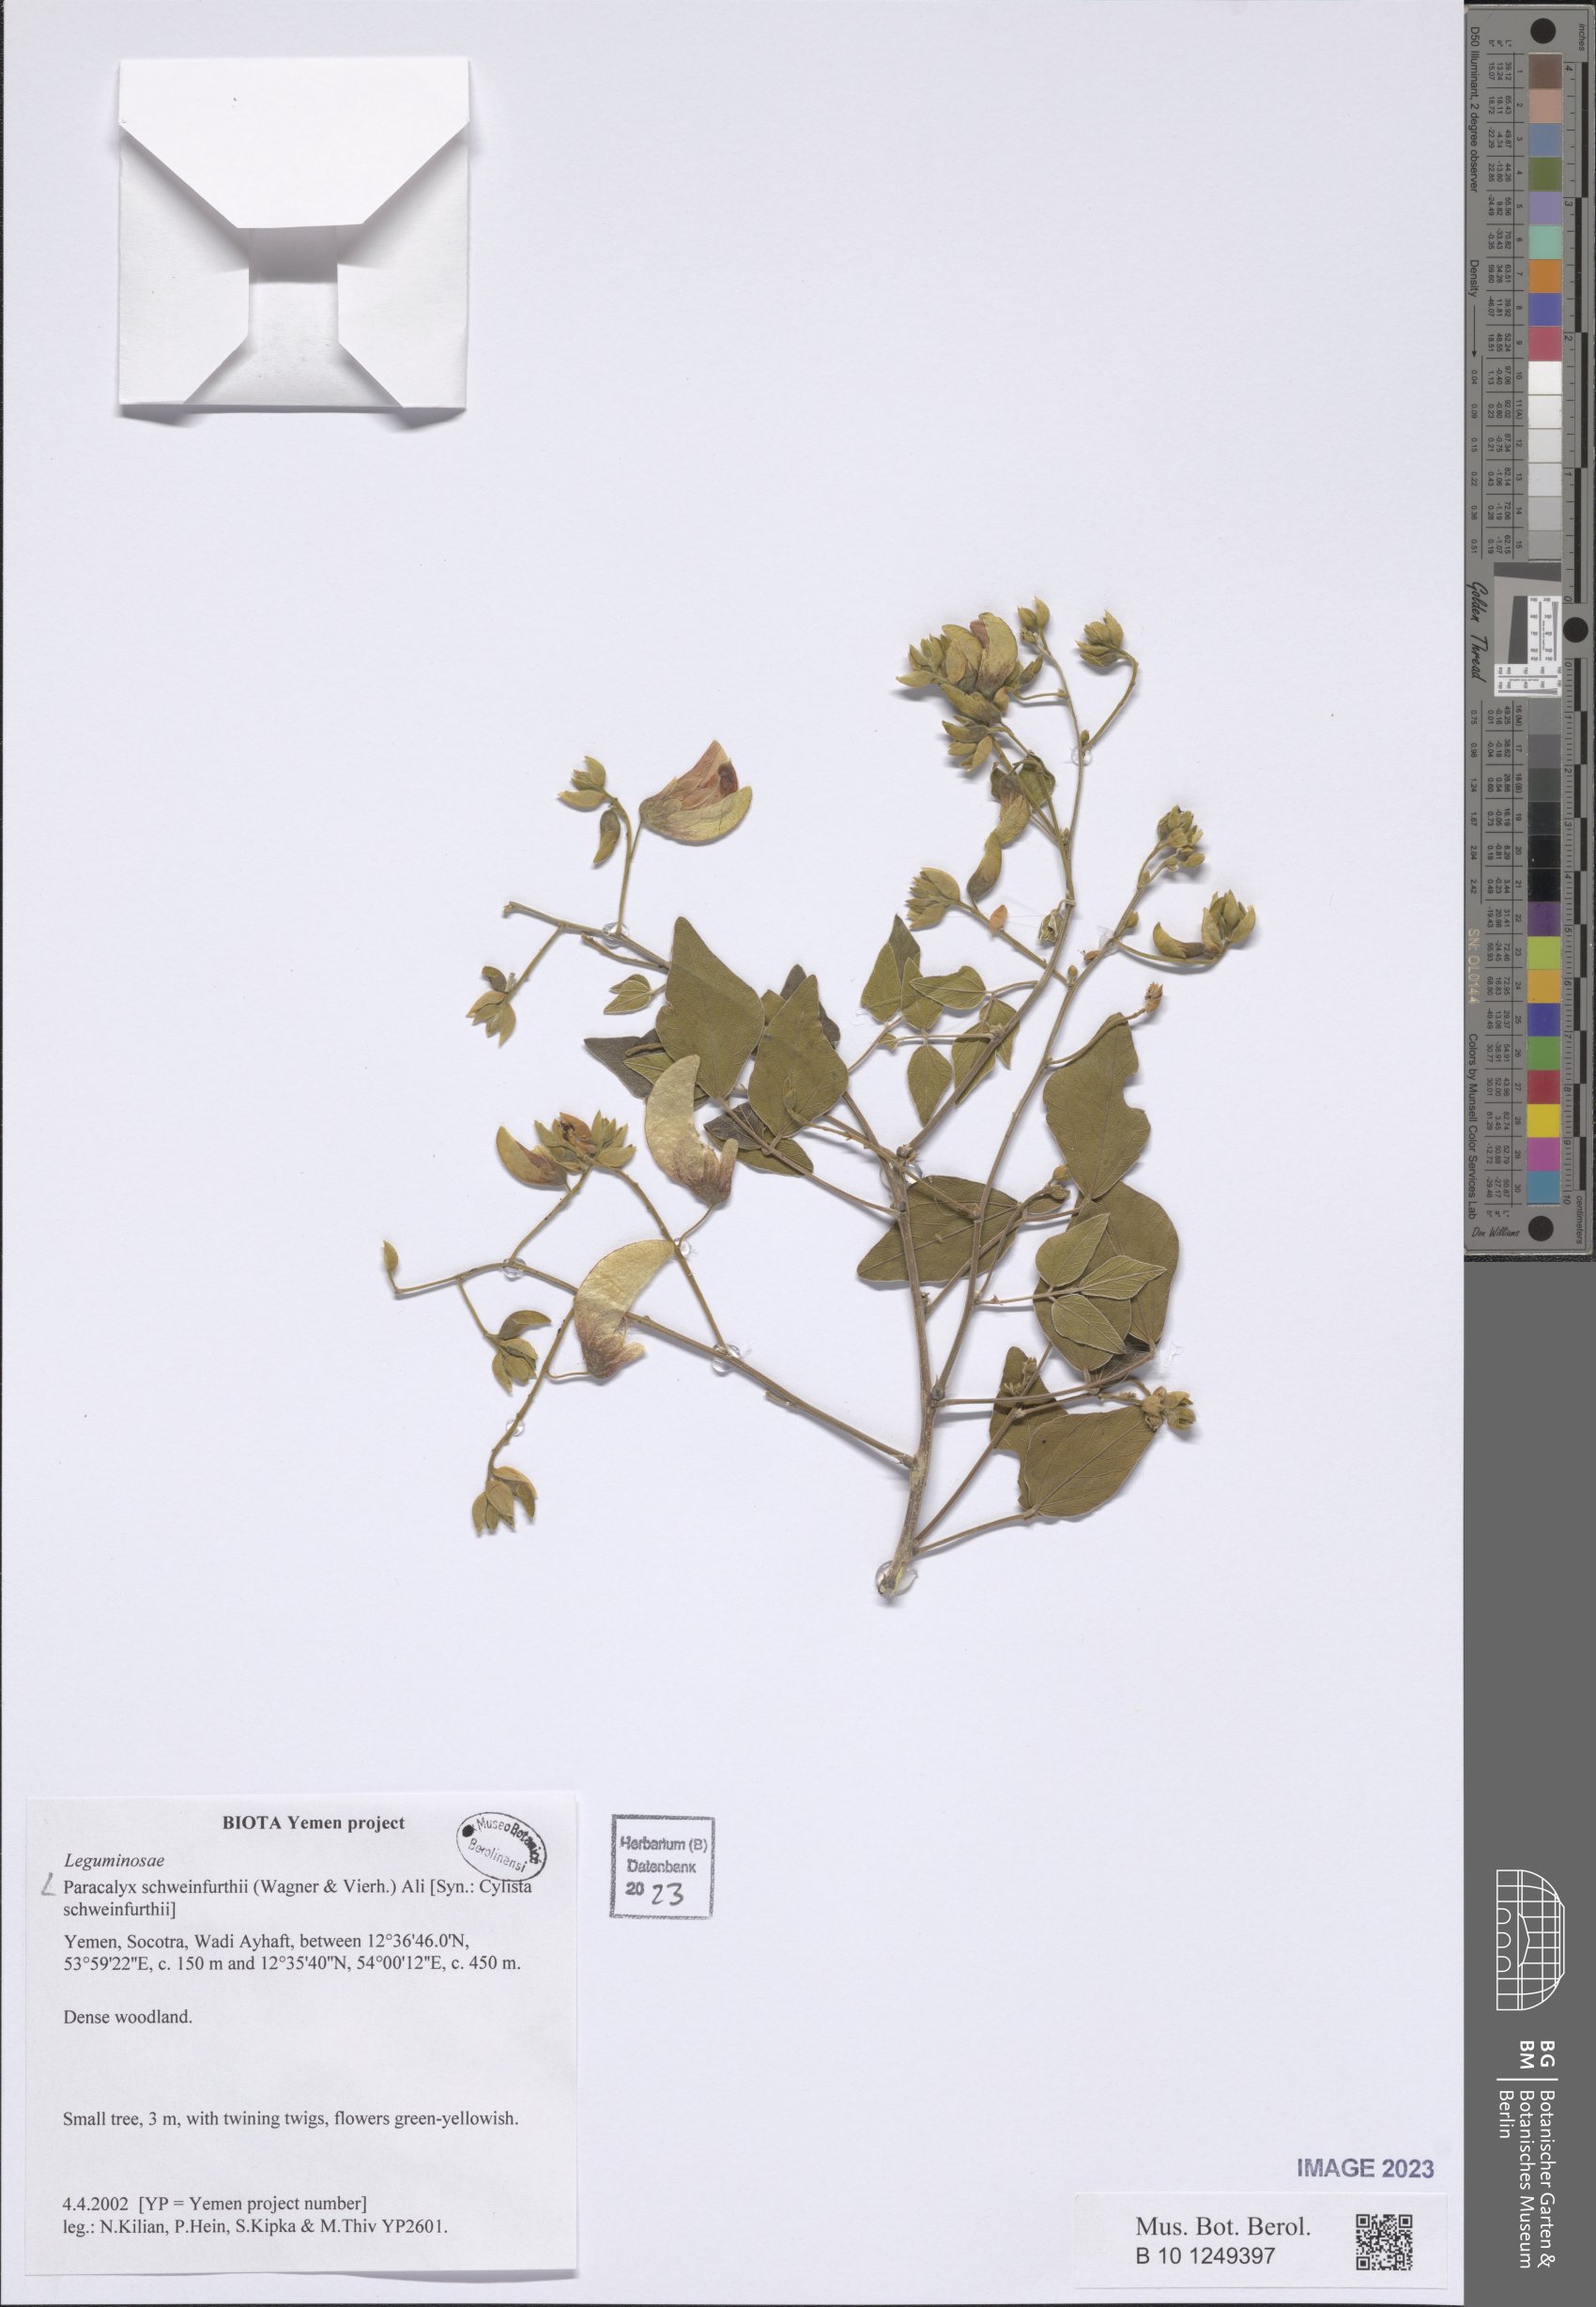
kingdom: Plantae
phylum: Tracheophyta
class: Magnoliopsida
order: Fabales
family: Fabaceae
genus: Paracalyx
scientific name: Paracalyx balfourii
